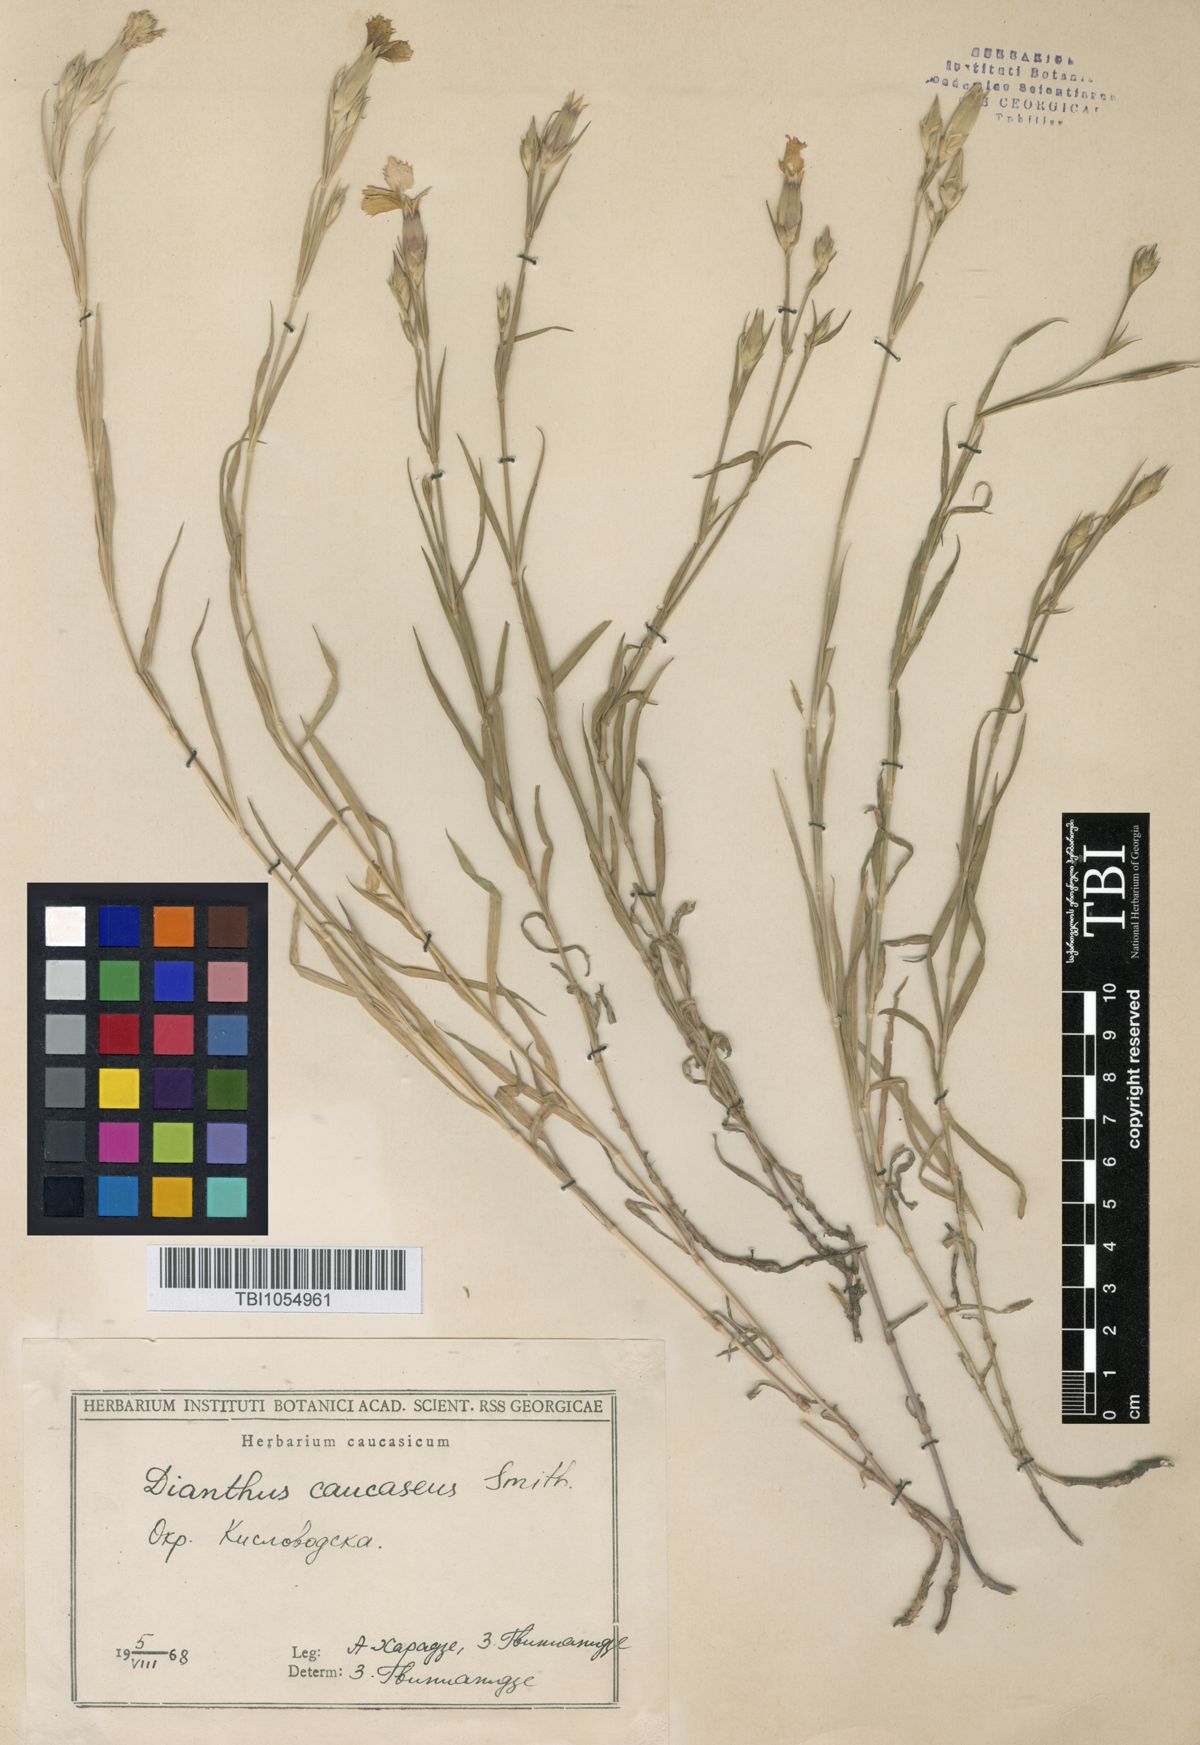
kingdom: Plantae
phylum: Tracheophyta
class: Magnoliopsida
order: Caryophyllales
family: Caryophyllaceae
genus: Dianthus
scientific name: Dianthus caucaseus
